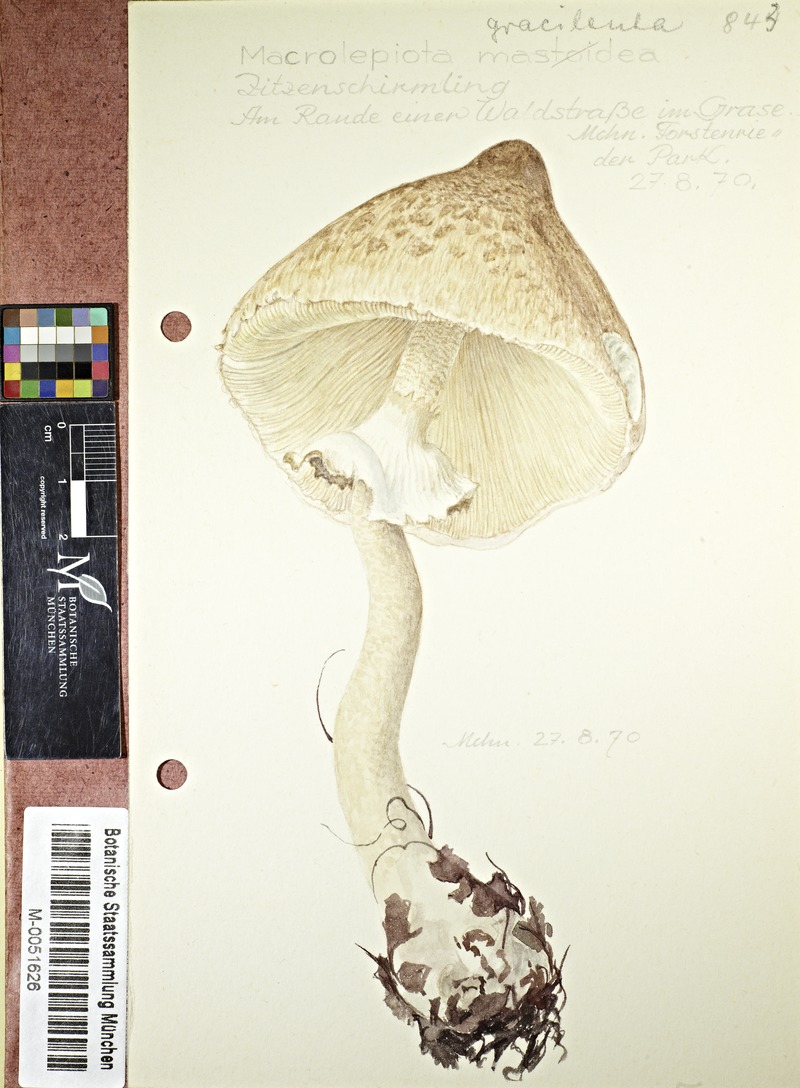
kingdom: Fungi
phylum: Basidiomycota
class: Agaricomycetes
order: Agaricales
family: Agaricaceae
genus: Macrolepiota
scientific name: Macrolepiota mastoidea
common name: Slender parasol
